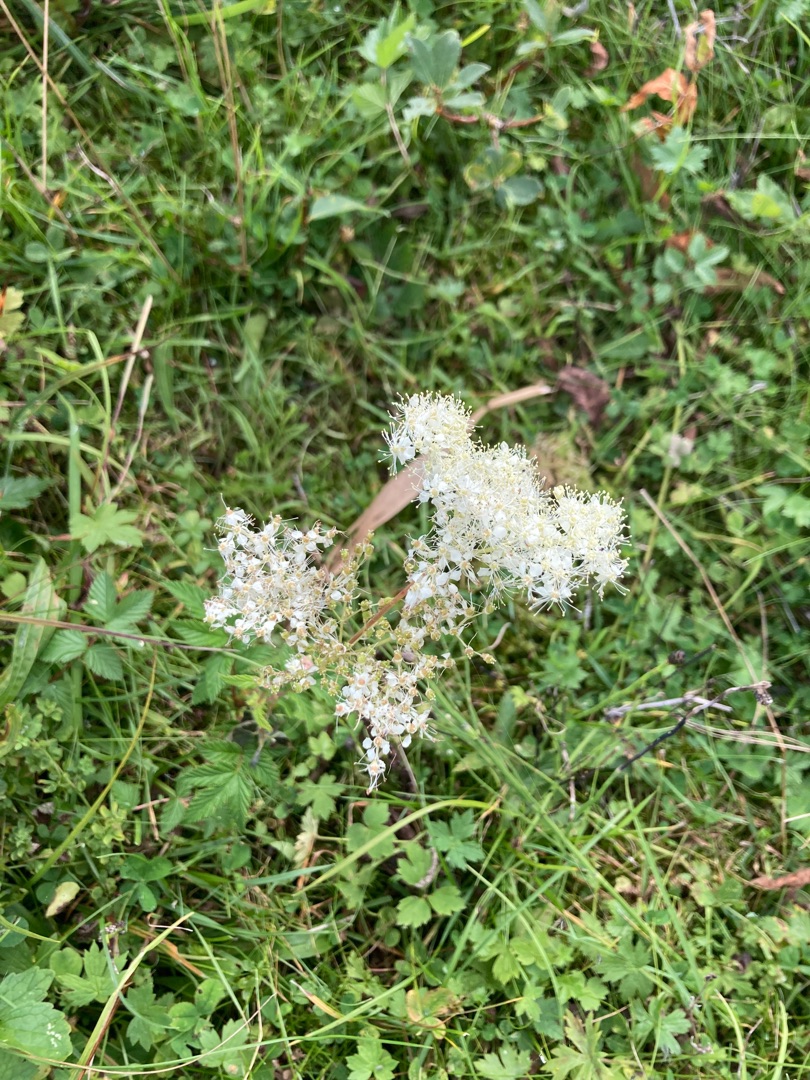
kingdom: Plantae
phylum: Tracheophyta
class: Magnoliopsida
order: Rosales
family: Rosaceae
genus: Filipendula
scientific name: Filipendula ulmaria
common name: Almindelig mjødurt
